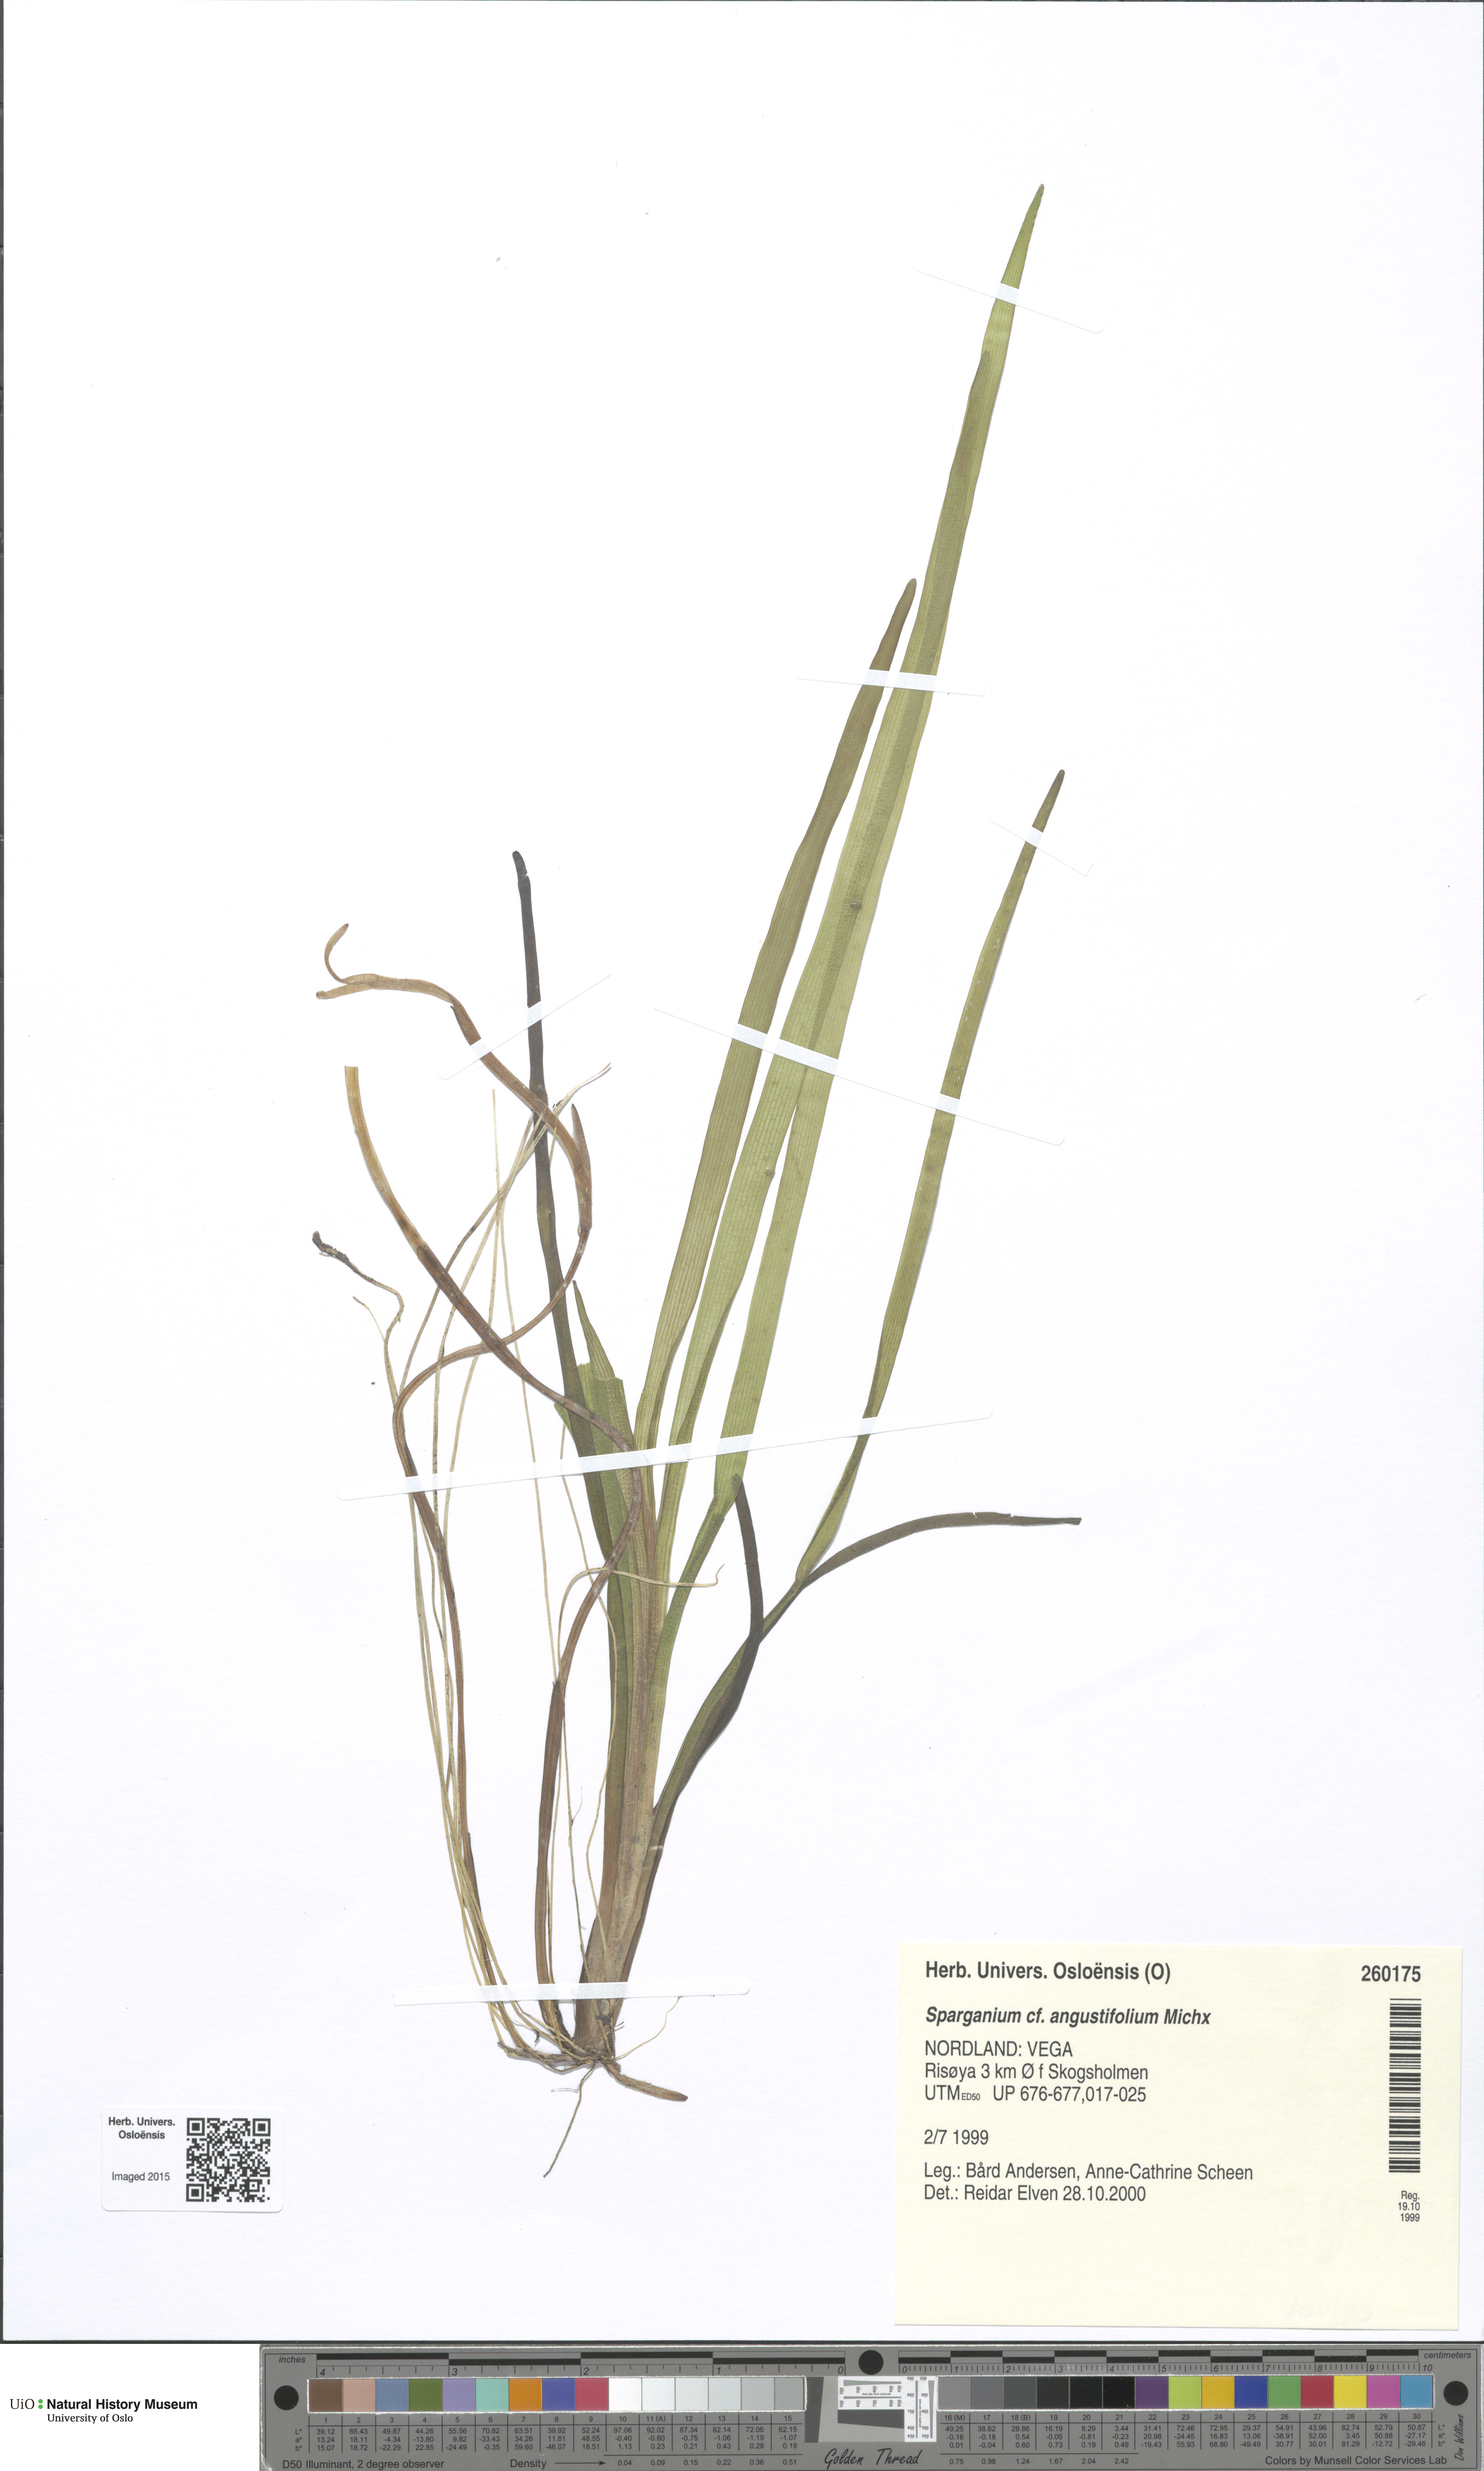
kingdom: Plantae
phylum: Tracheophyta
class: Liliopsida
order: Poales
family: Typhaceae
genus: Sparganium
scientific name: Sparganium angustifolium
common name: Floating bur-reed
